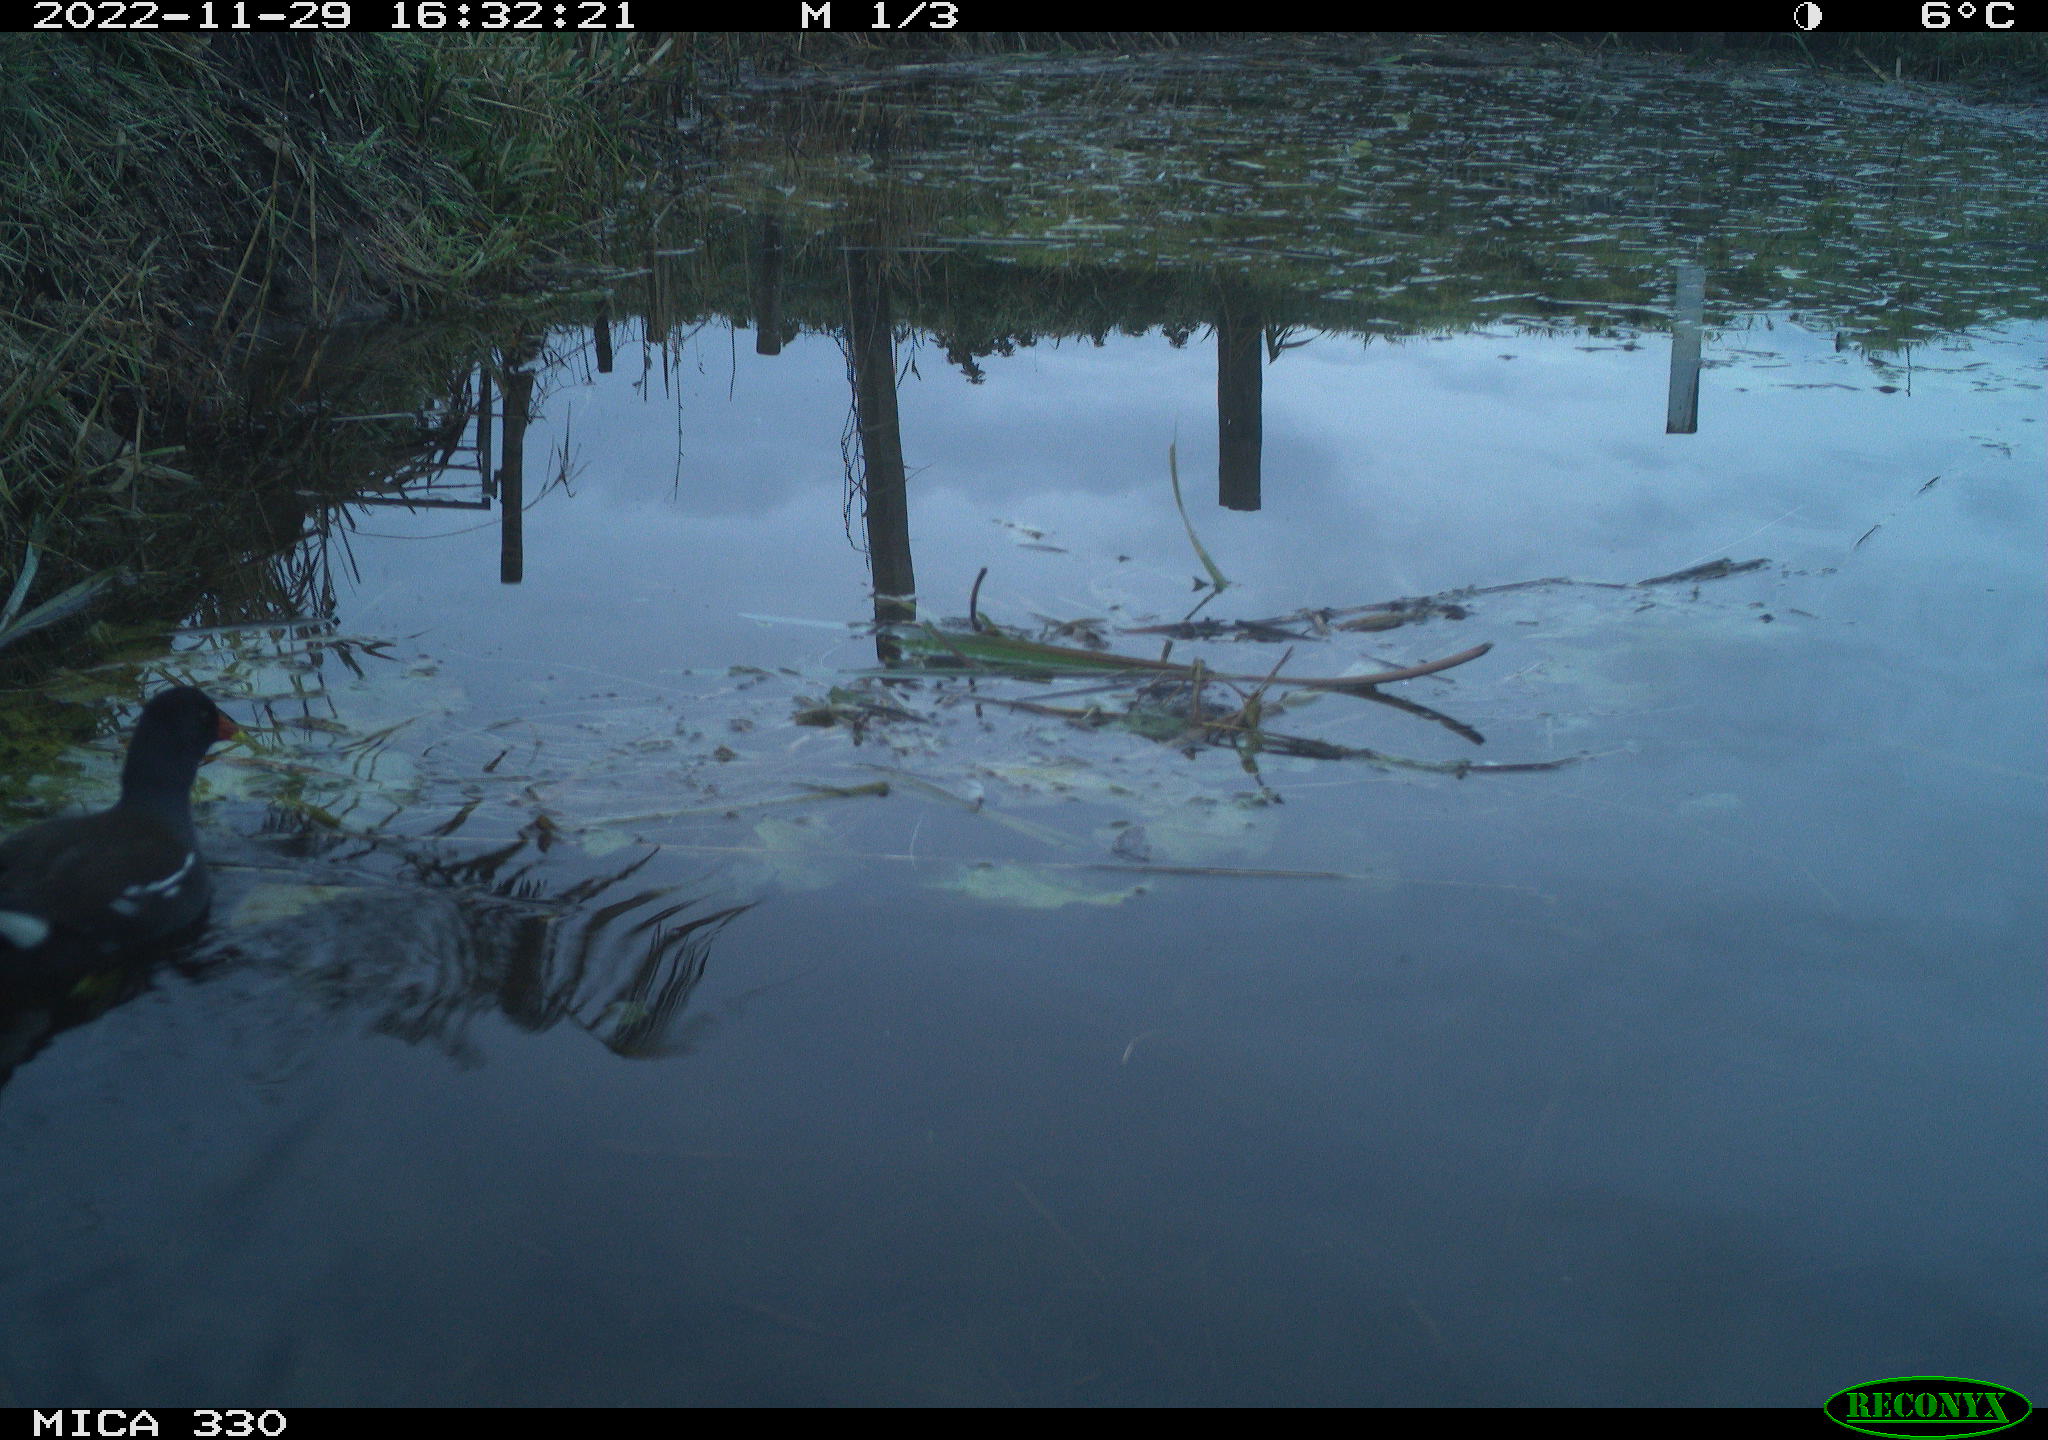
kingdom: Animalia
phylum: Chordata
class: Aves
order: Gruiformes
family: Rallidae
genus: Gallinula
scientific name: Gallinula chloropus
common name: Common moorhen
